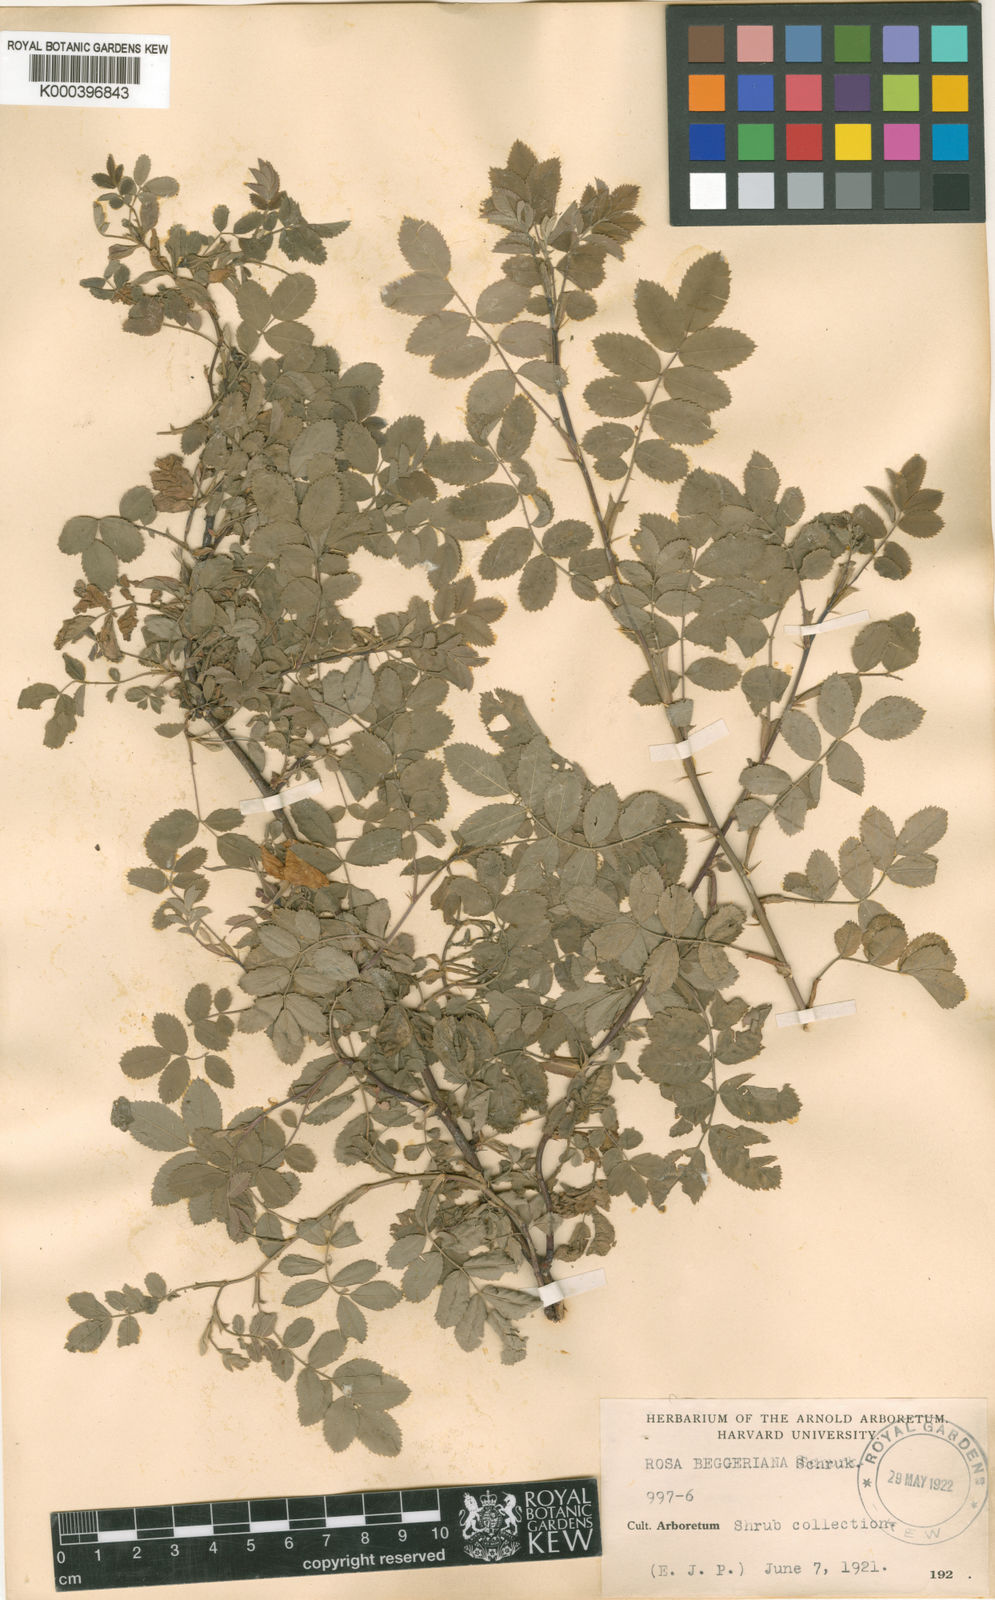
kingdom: Plantae
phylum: Tracheophyta
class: Magnoliopsida
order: Rosales
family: Rosaceae
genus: Rosa
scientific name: Rosa beggeriana
